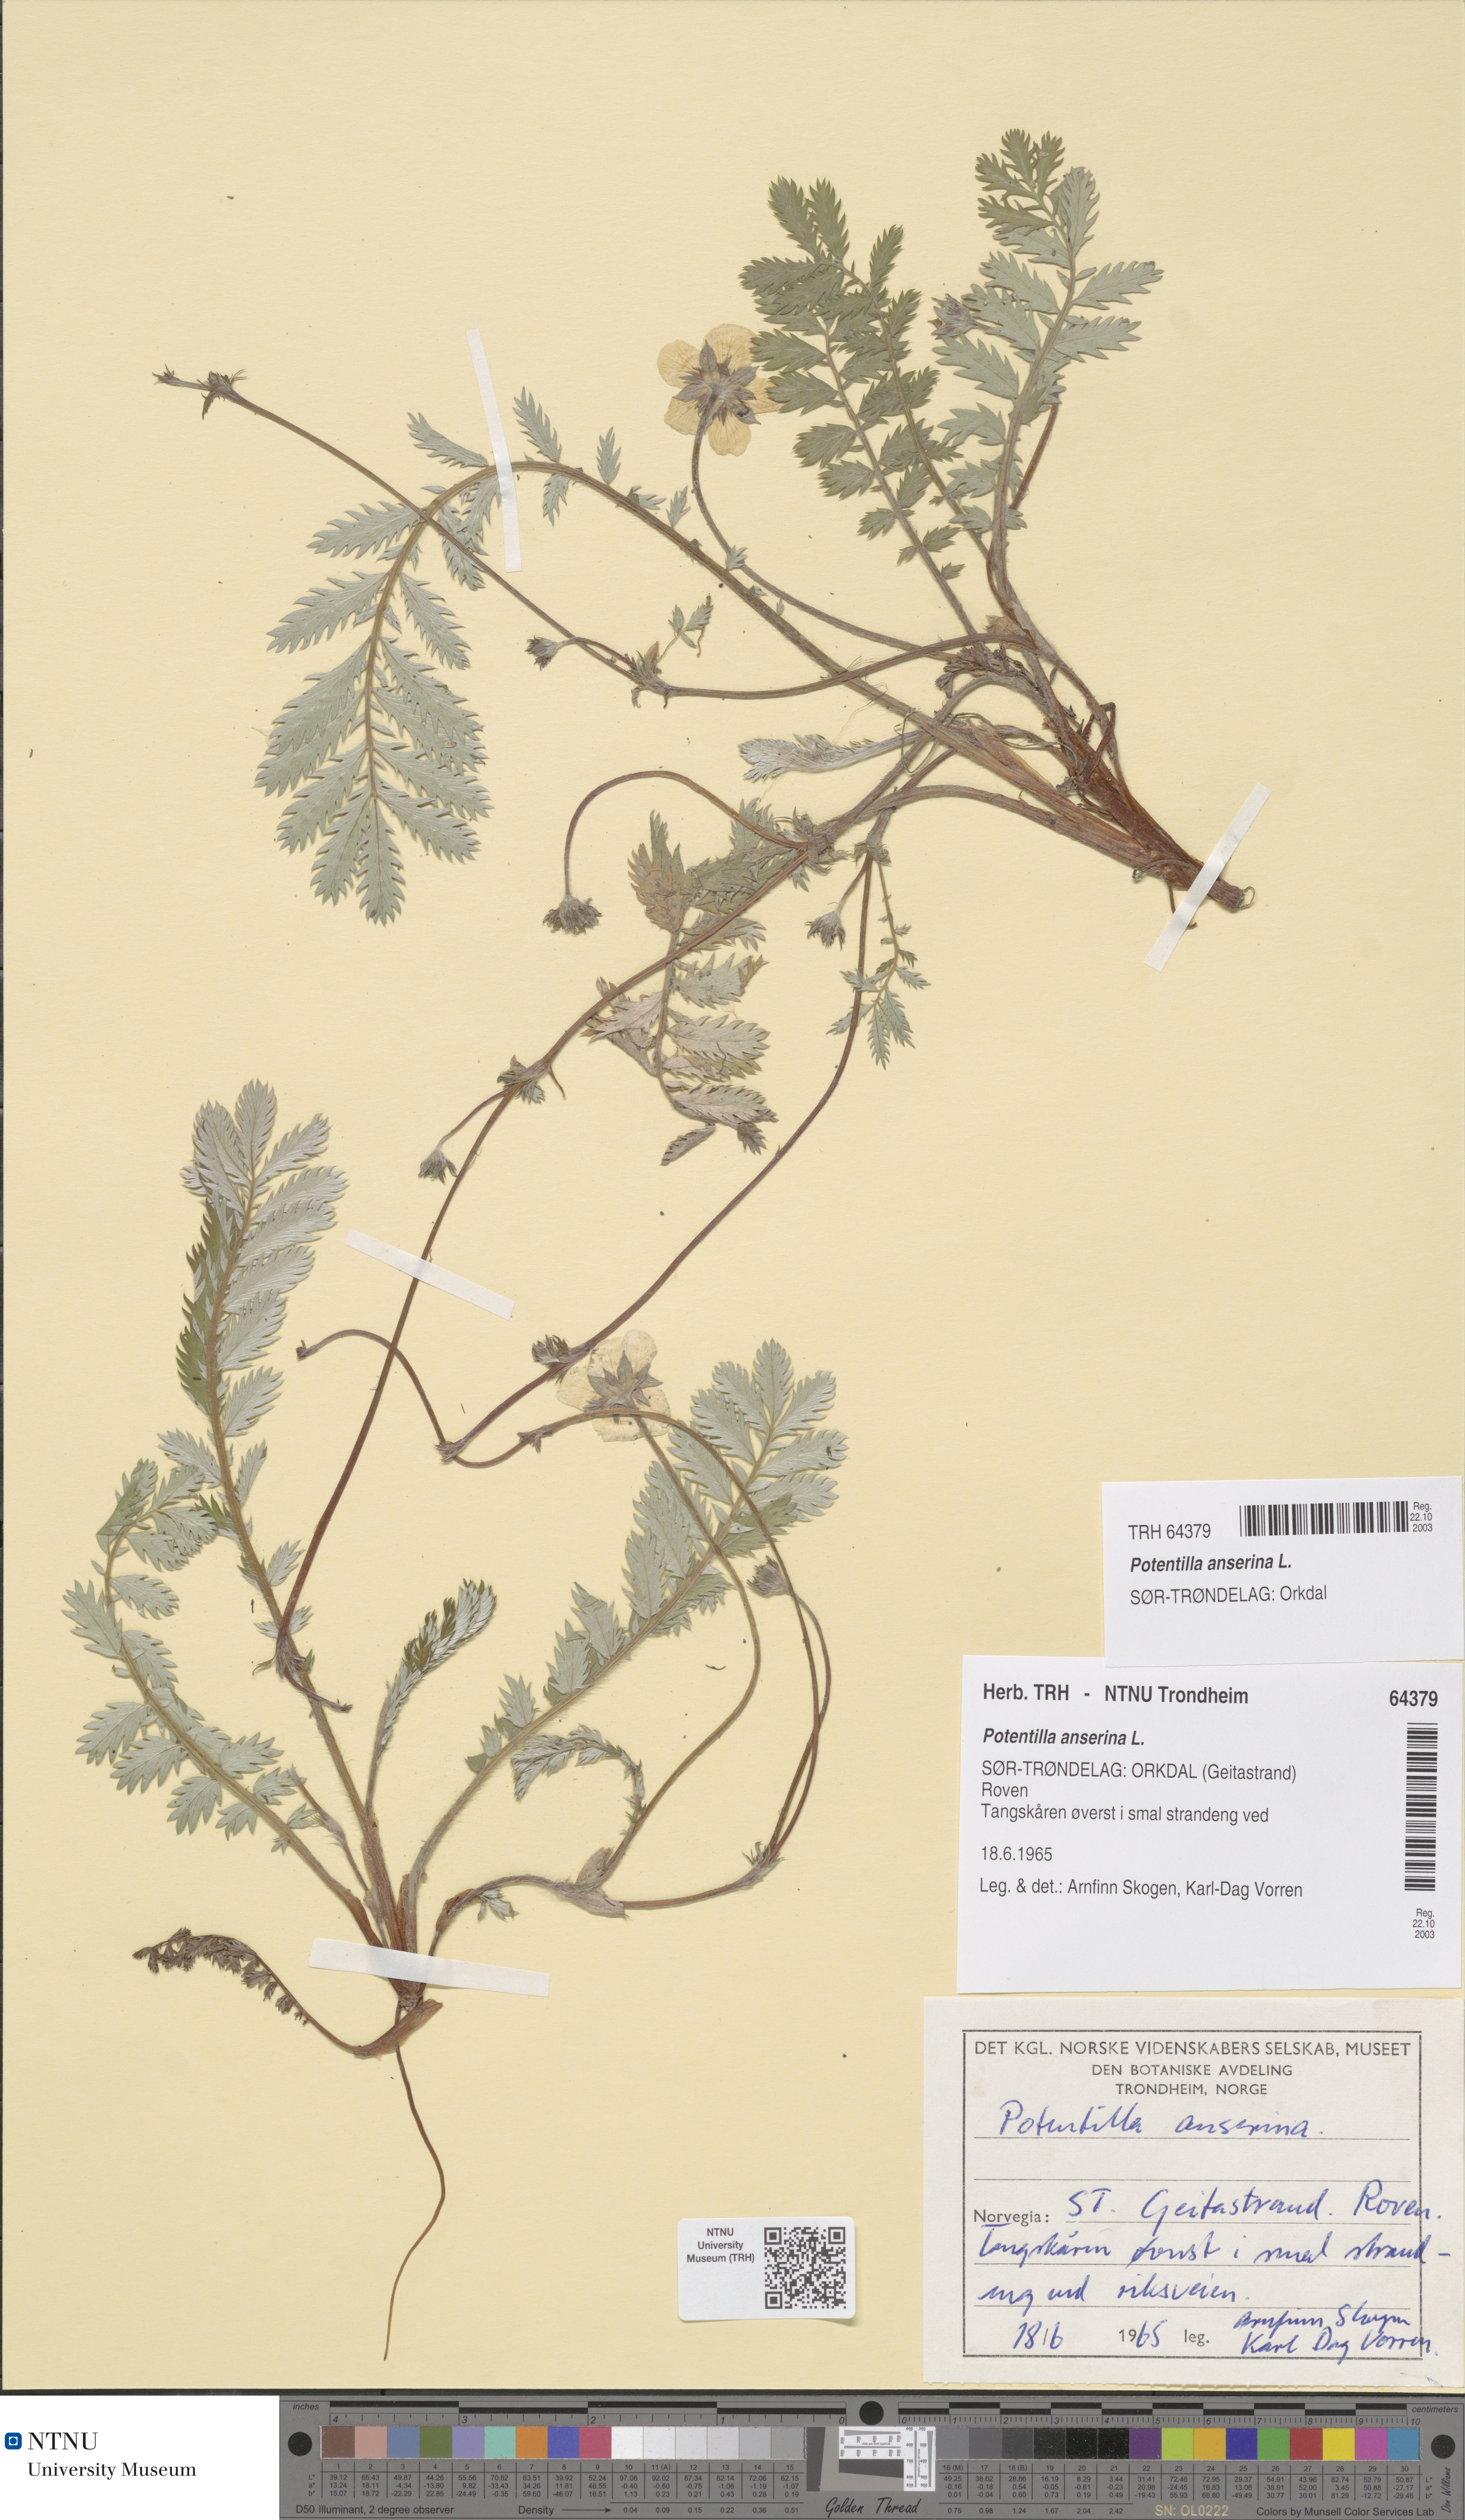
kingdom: Plantae
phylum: Tracheophyta
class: Magnoliopsida
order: Rosales
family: Rosaceae
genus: Argentina
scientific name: Argentina anserina
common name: Common silverweed
